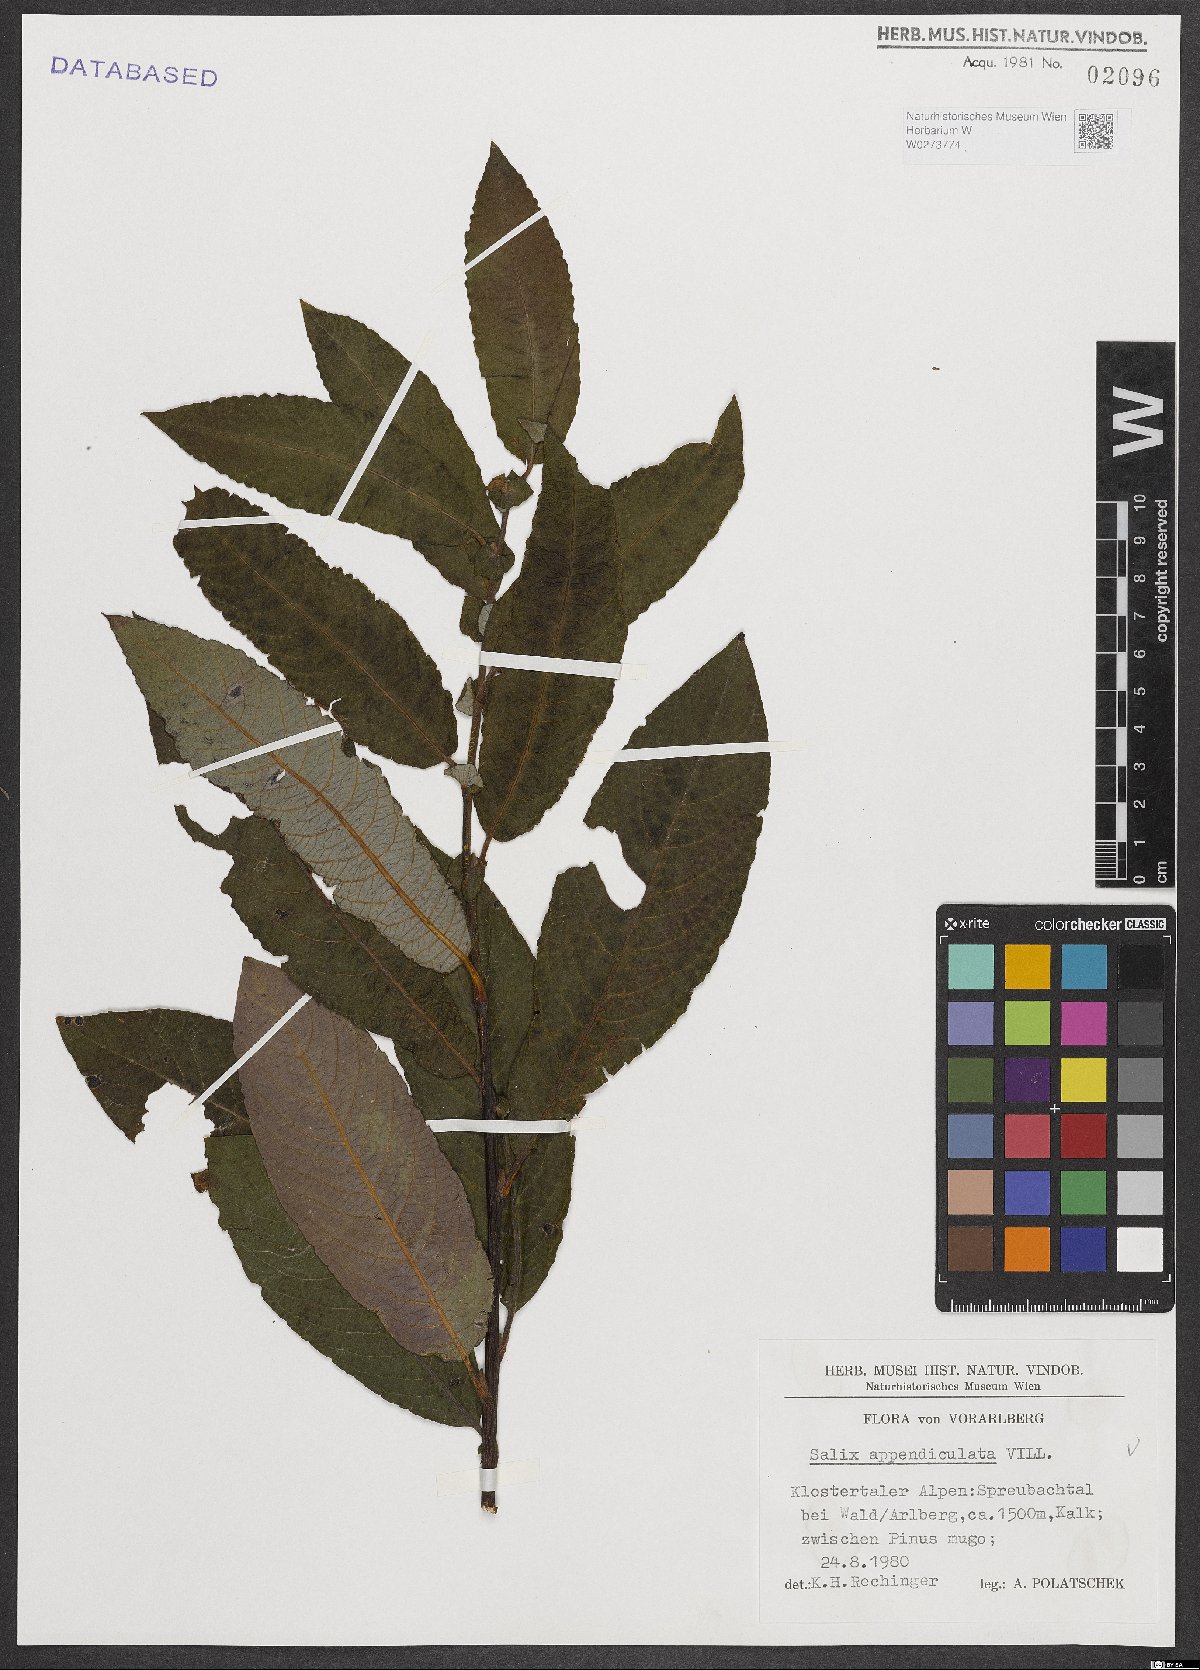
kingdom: Plantae
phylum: Tracheophyta
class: Magnoliopsida
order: Malpighiales
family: Salicaceae
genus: Salix
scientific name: Salix appendiculata
